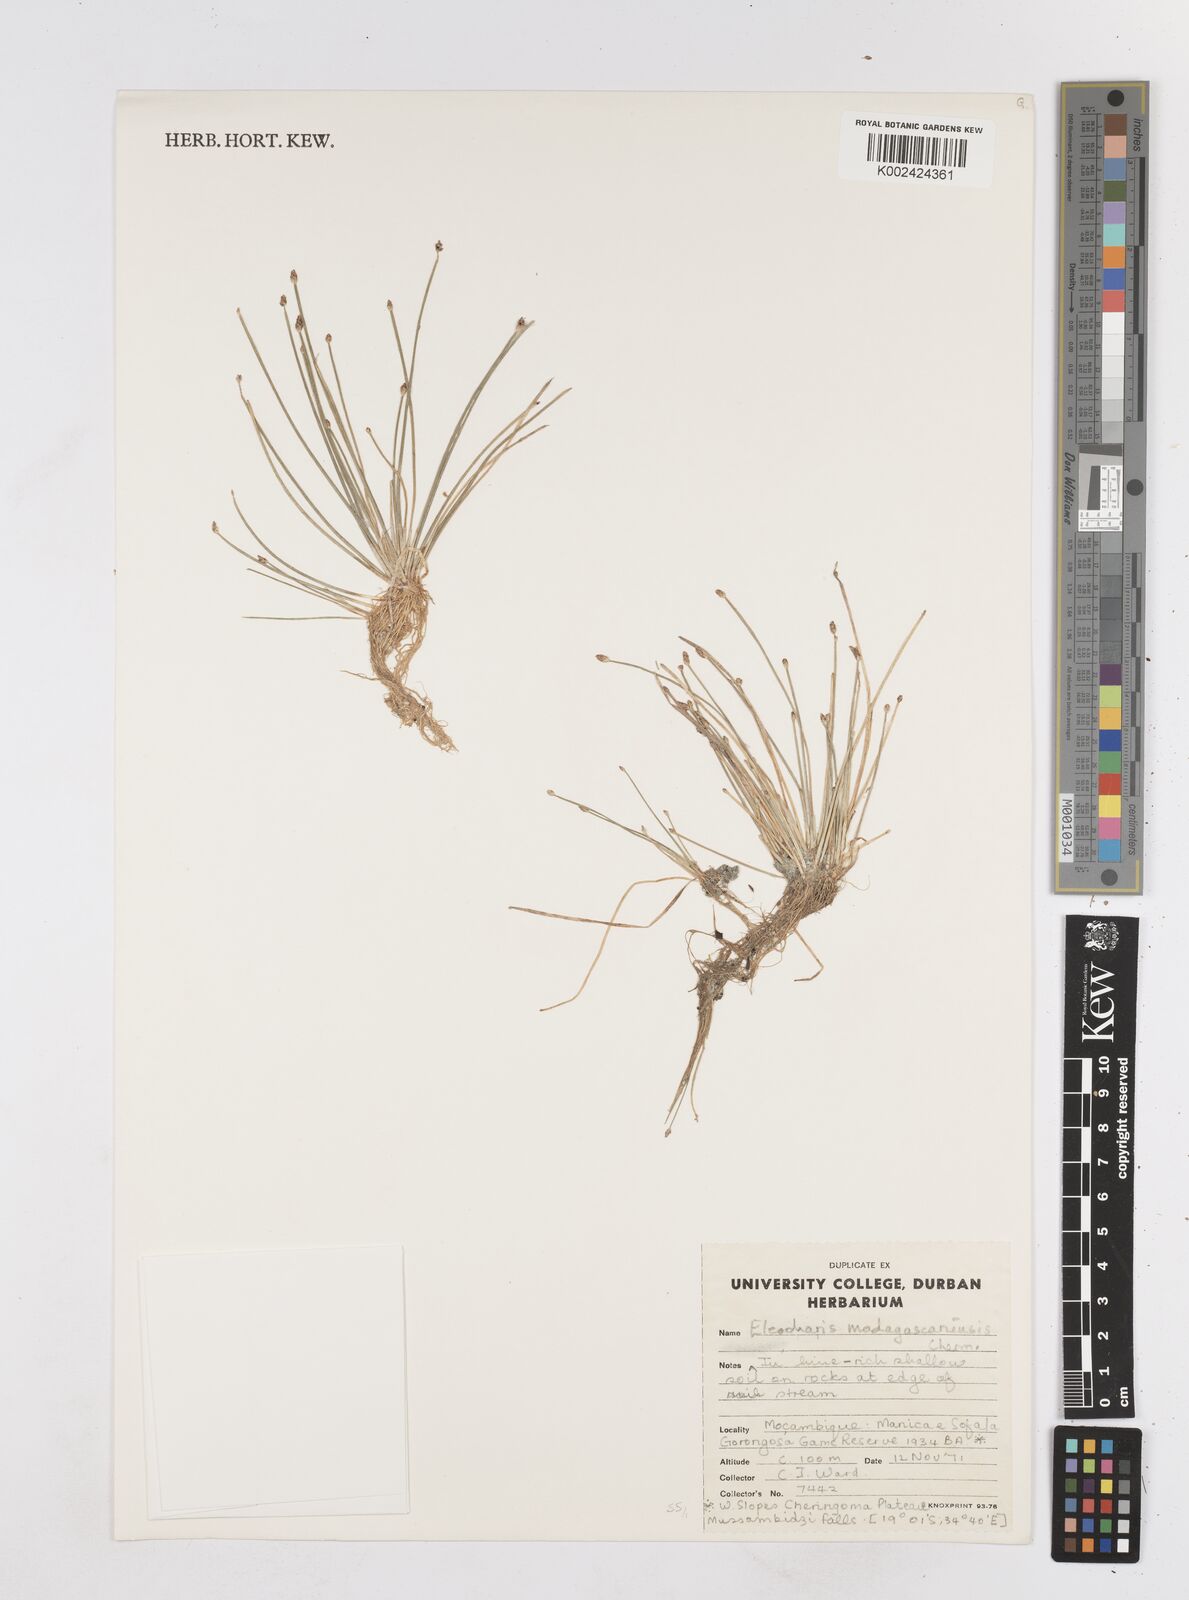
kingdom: Plantae
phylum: Tracheophyta
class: Liliopsida
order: Poales
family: Cyperaceae
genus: Eleocharis
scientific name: Eleocharis caduca
